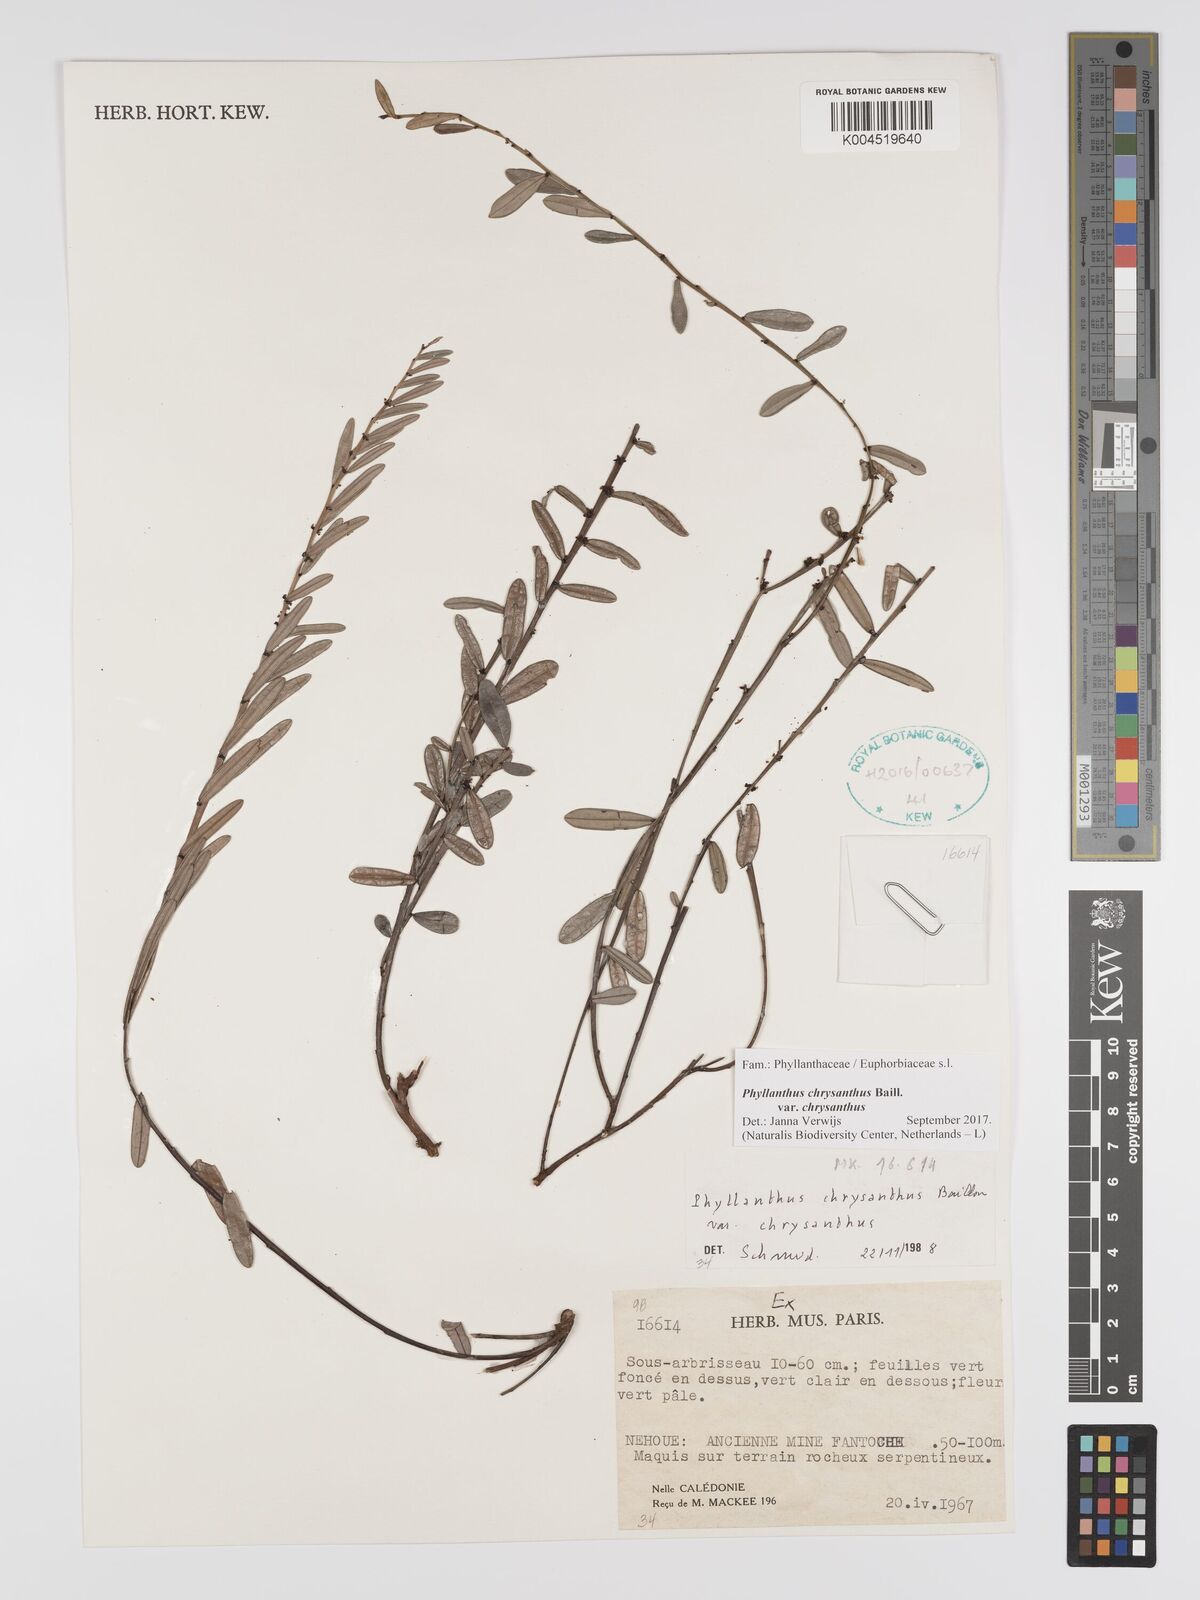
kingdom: Plantae
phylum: Tracheophyta
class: Magnoliopsida
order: Malpighiales
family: Phyllanthaceae
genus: Phyllanthus
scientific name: Phyllanthus chrysanthus
